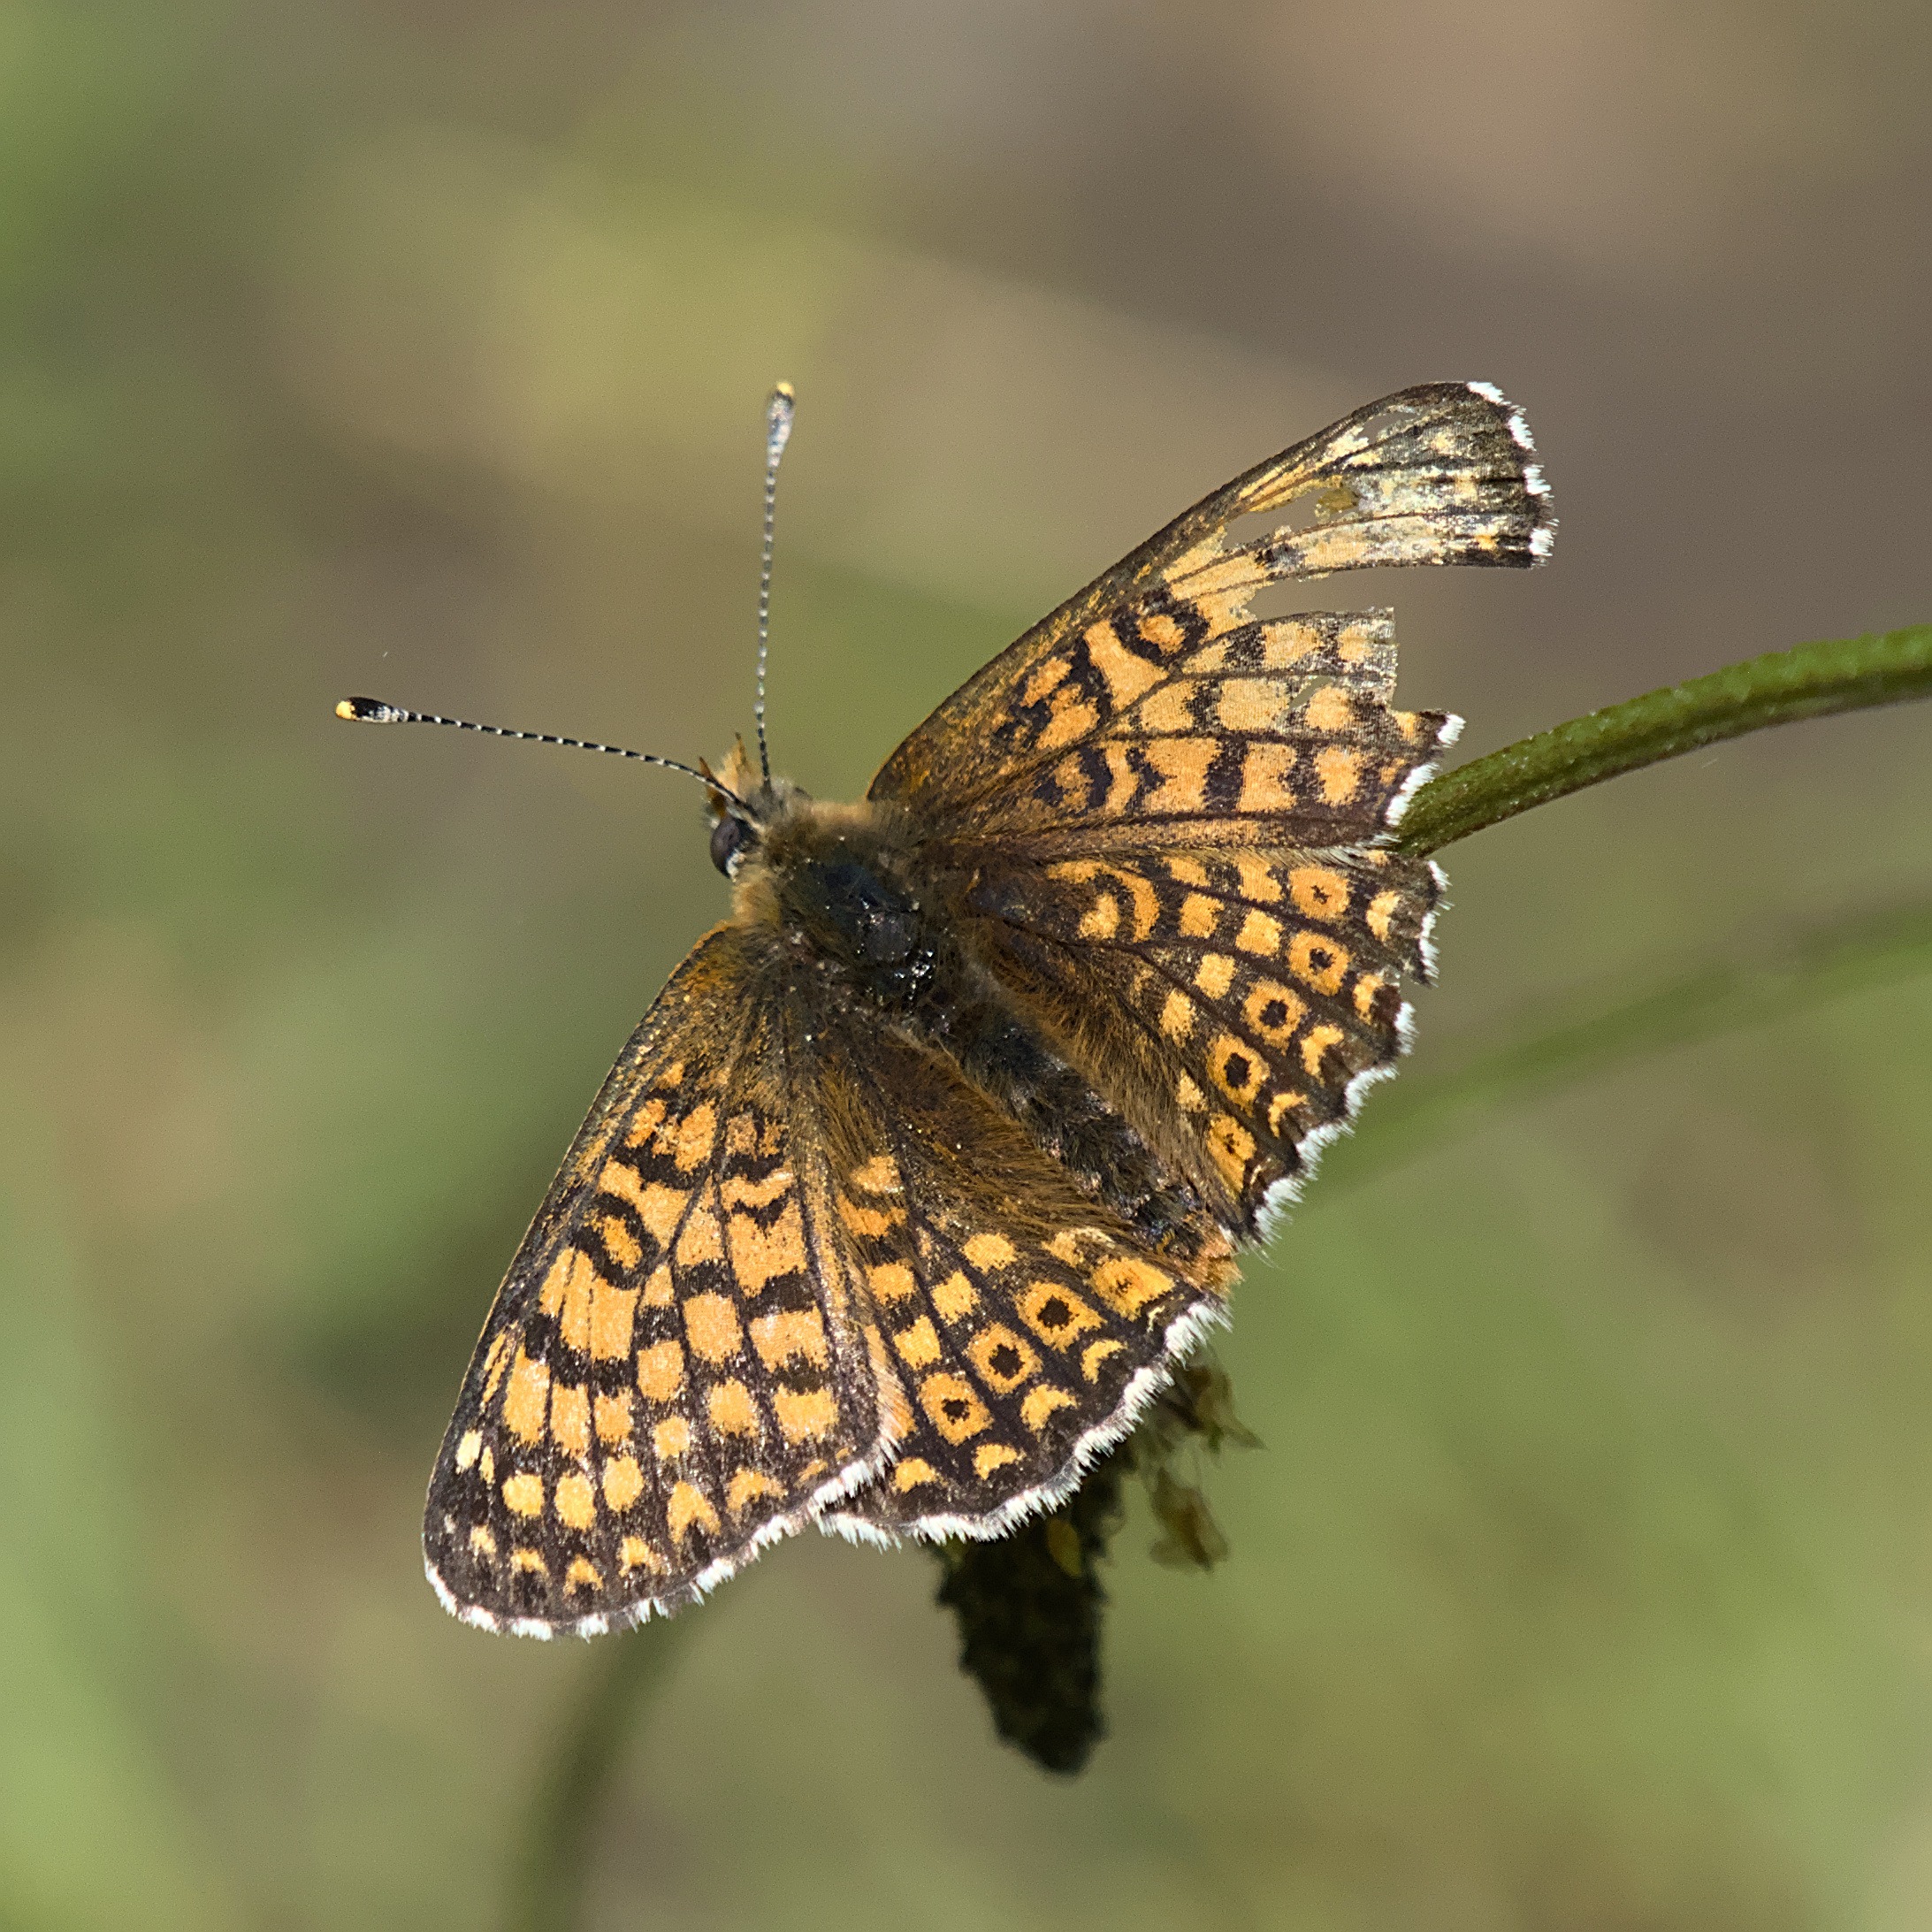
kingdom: Animalia
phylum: Arthropoda
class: Insecta
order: Lepidoptera
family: Nymphalidae
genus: Melitaea
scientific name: Melitaea cinxia
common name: Okkergul pletvinge
